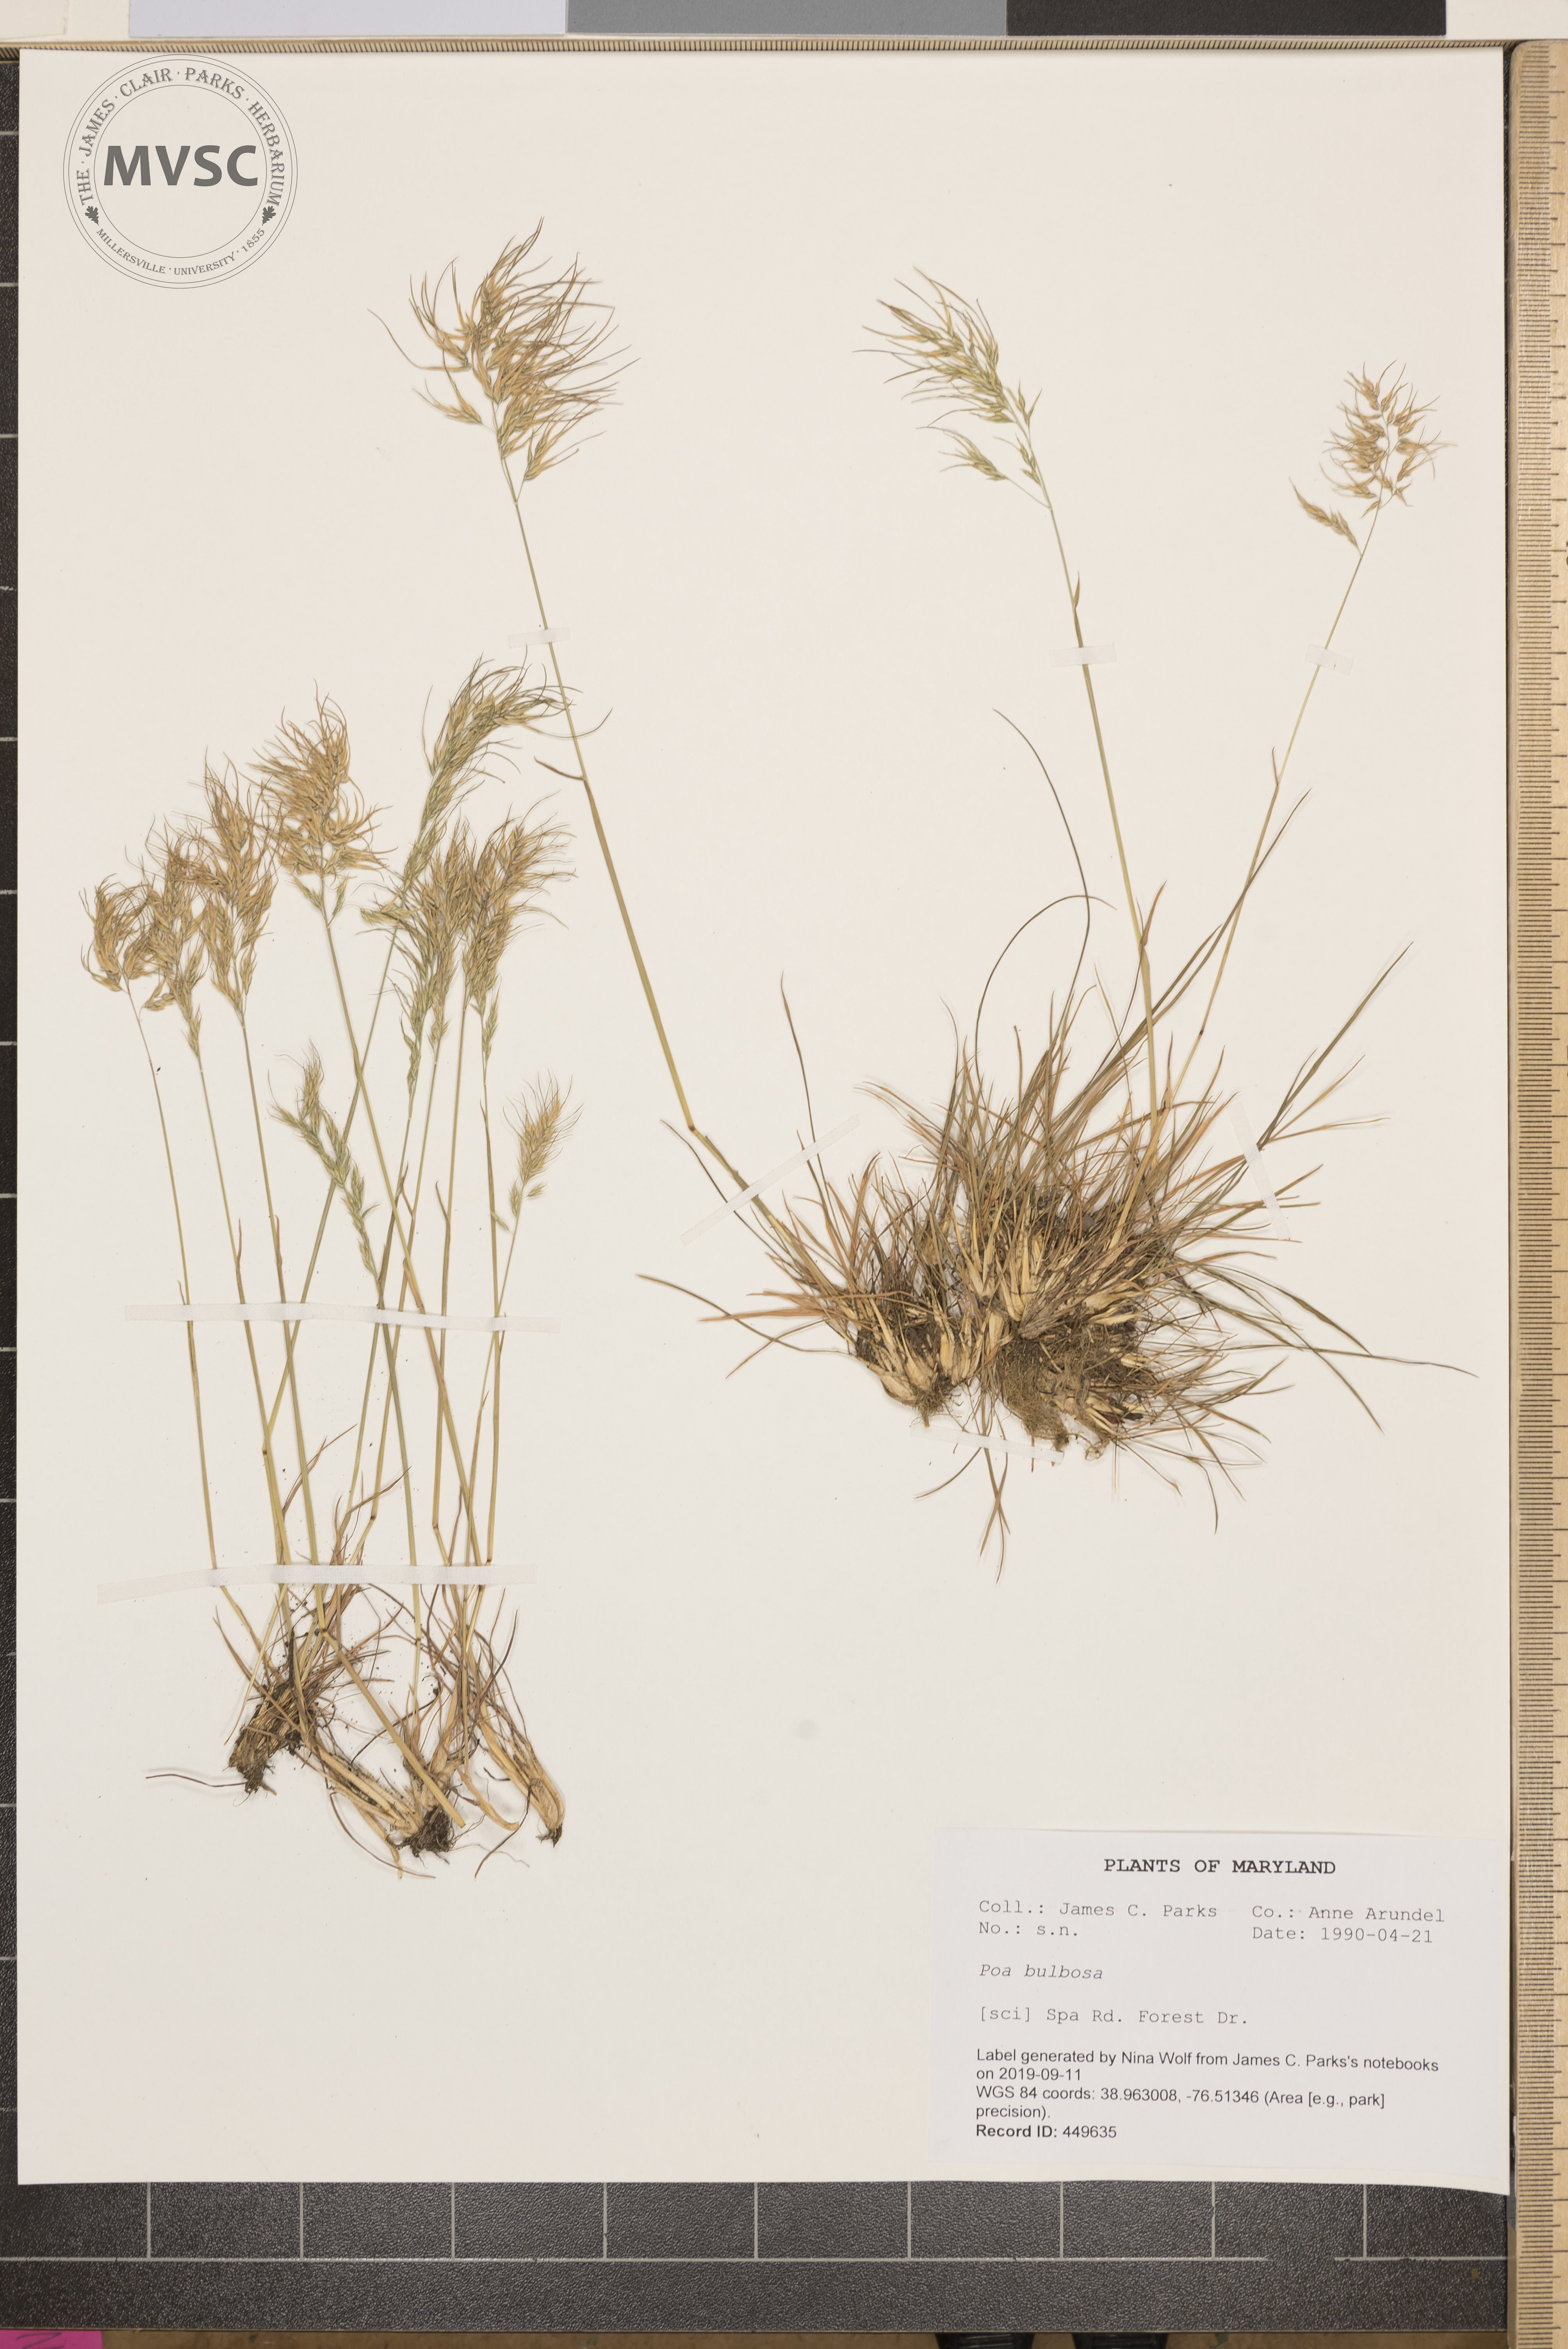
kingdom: Plantae
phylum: Tracheophyta
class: Liliopsida
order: Poales
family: Poaceae
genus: Poa
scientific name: Poa bulbosa
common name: Bulbous bluegrass
